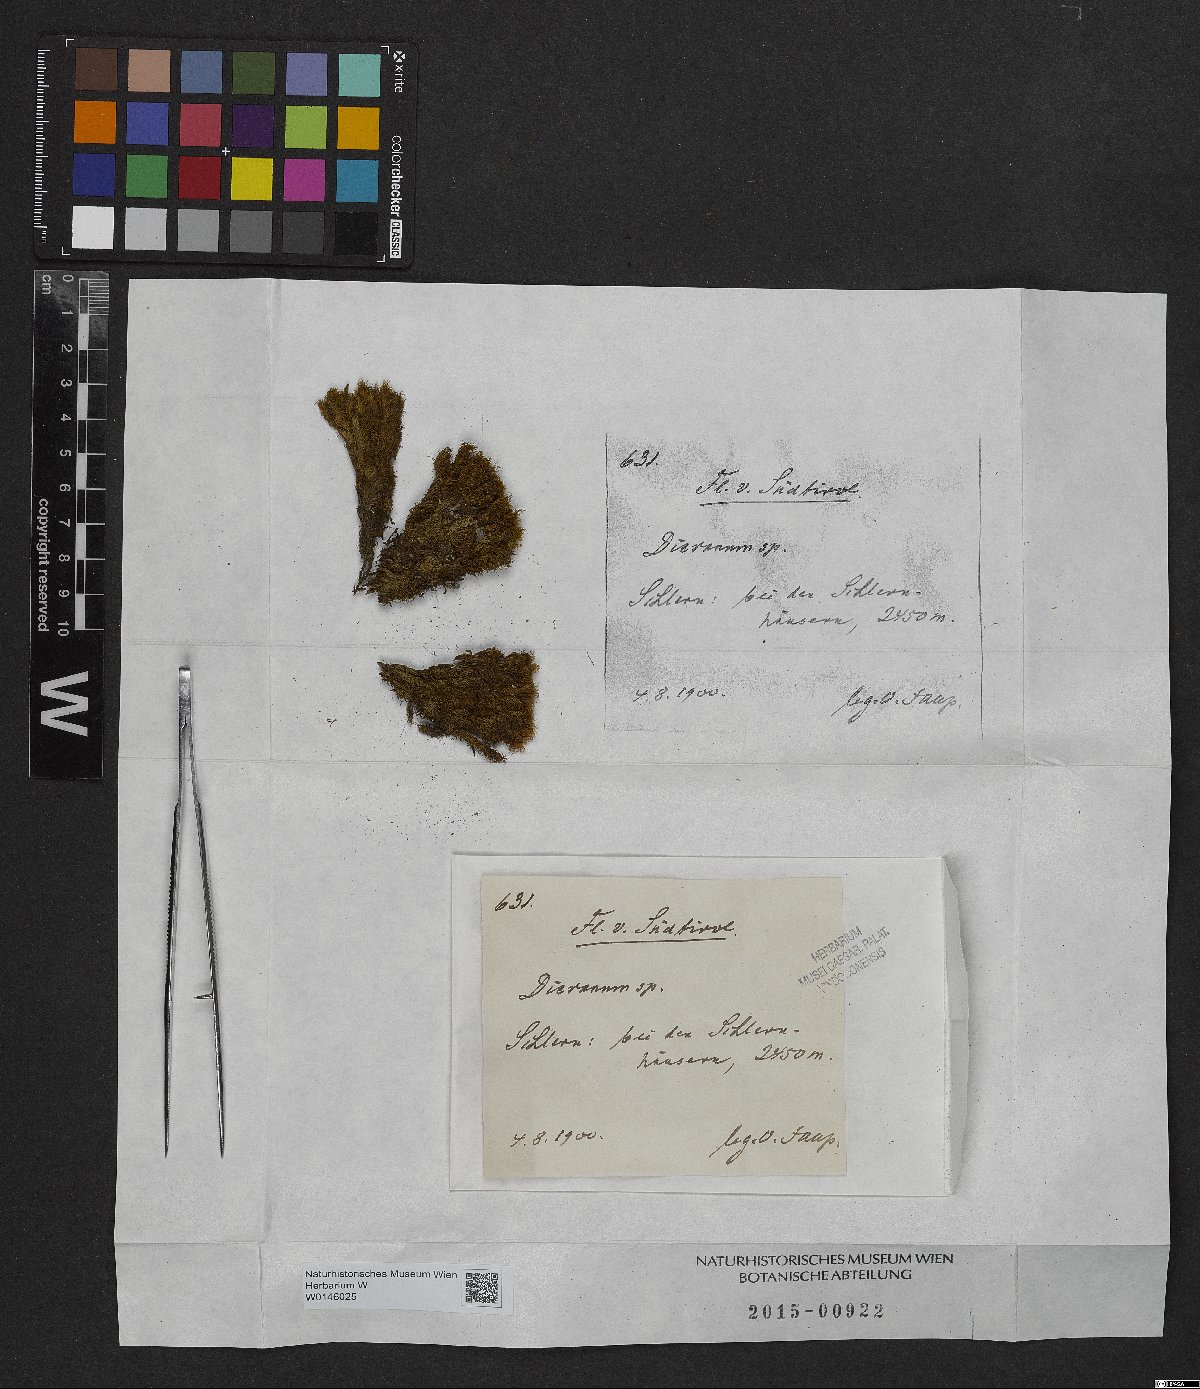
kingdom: Plantae
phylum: Bryophyta
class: Bryopsida
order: Dicranales
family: Dicranaceae
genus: Dicranum
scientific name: Dicranum
